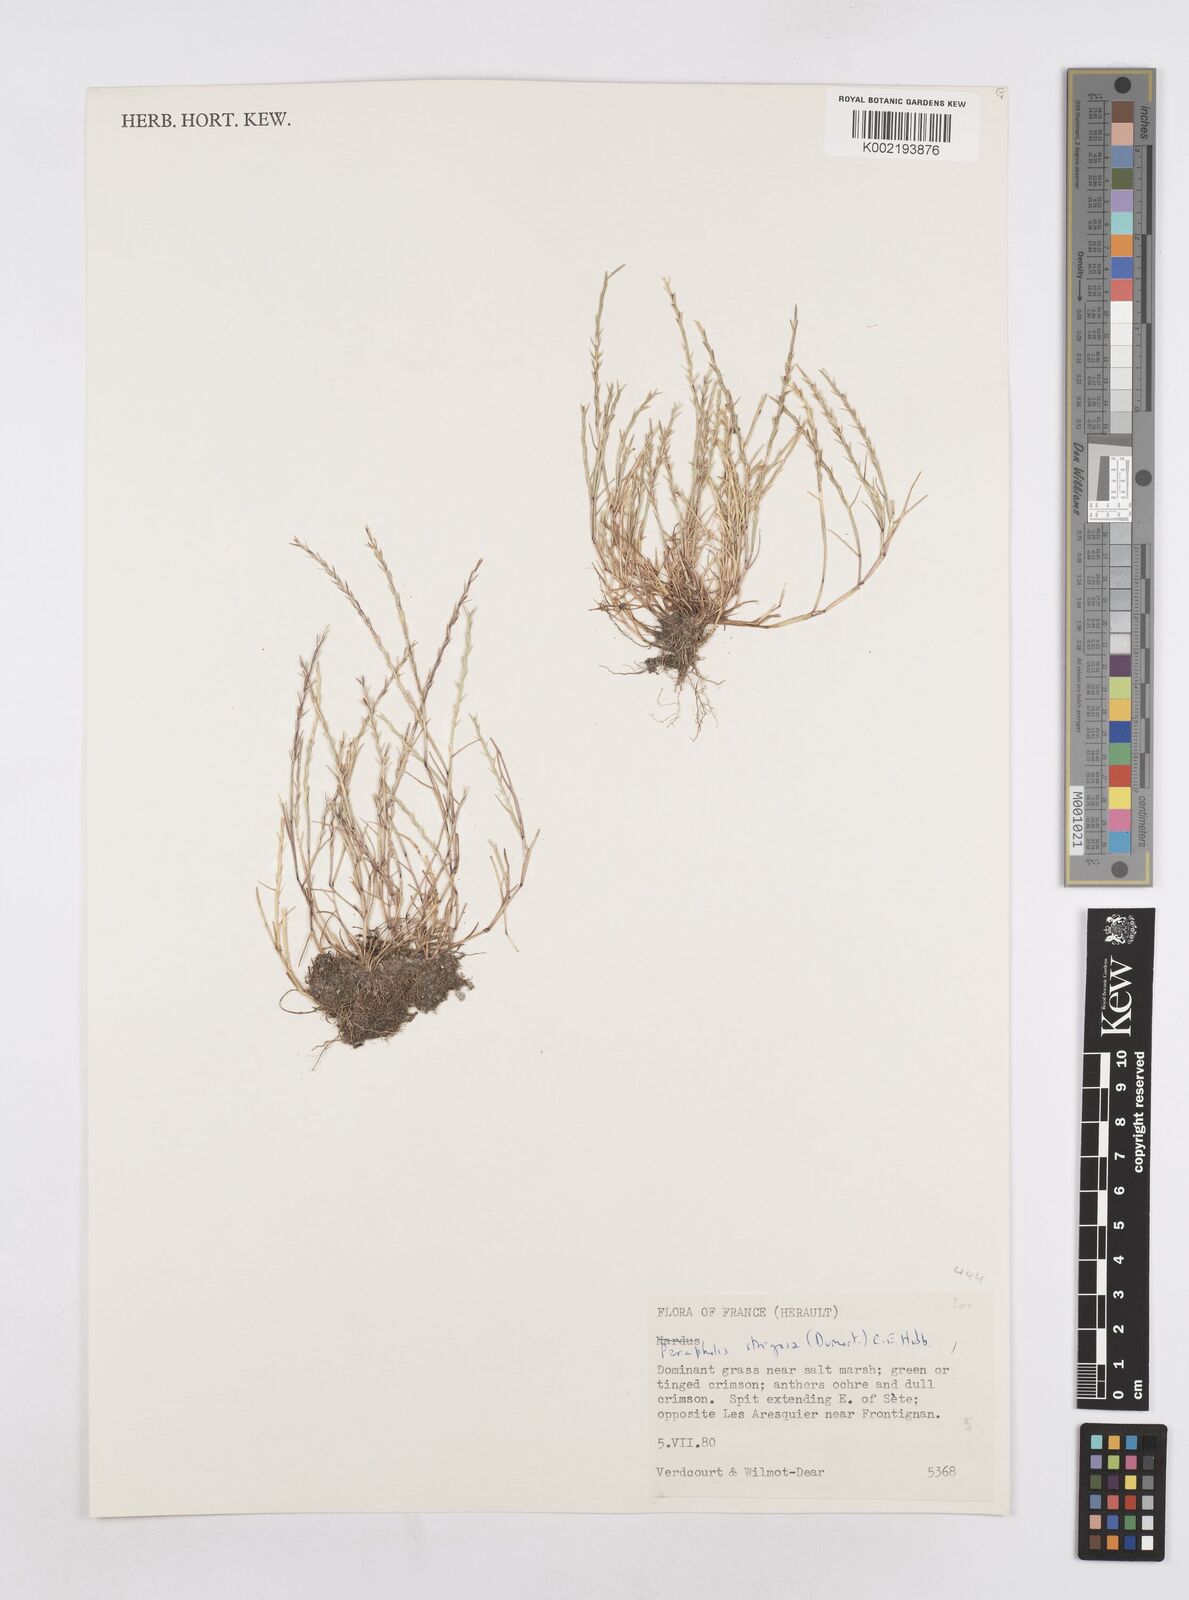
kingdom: Plantae
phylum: Tracheophyta
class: Liliopsida
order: Poales
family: Poaceae
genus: Parapholis
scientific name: Parapholis strigosa
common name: Hard-grass
